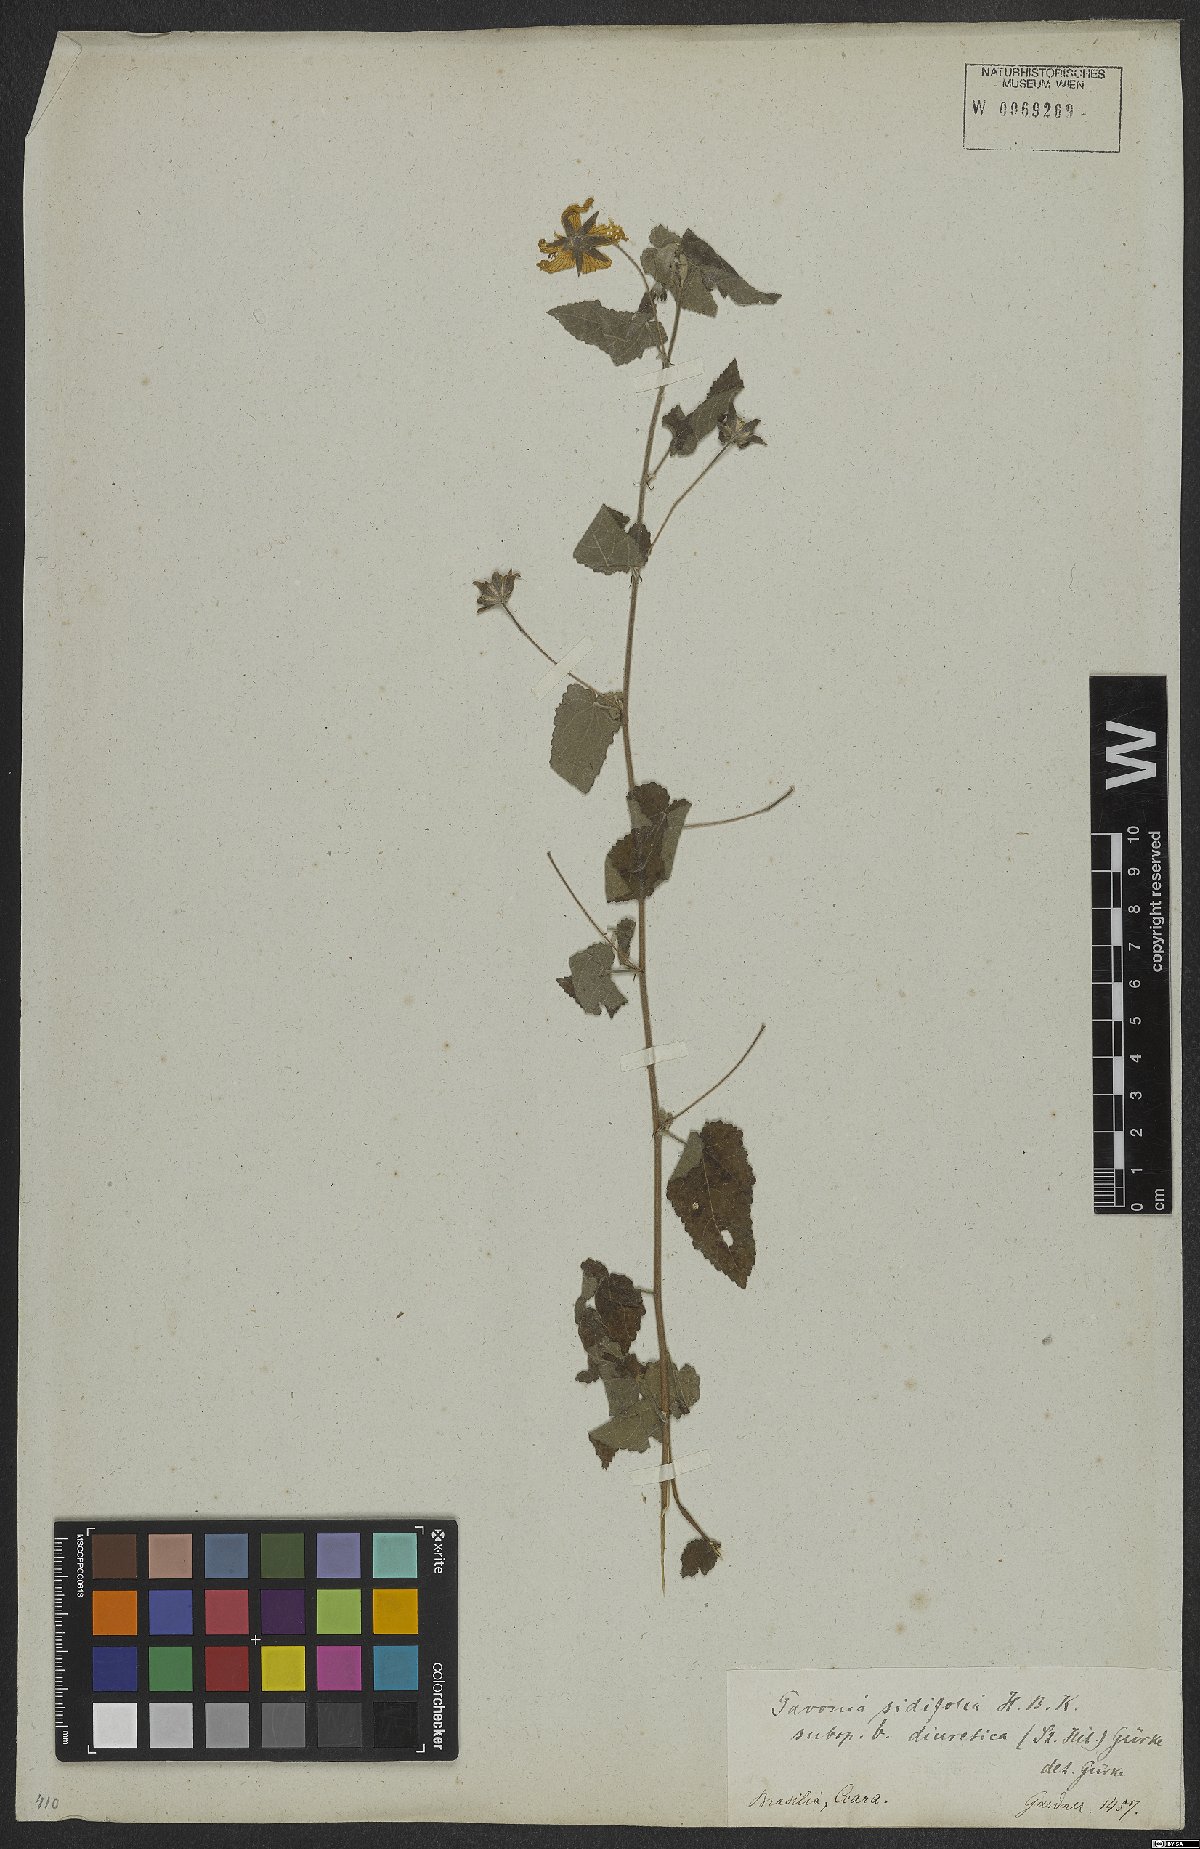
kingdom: Plantae
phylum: Tracheophyta
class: Magnoliopsida
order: Malvales
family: Malvaceae
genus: Pavonia
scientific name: Pavonia sidifolia
